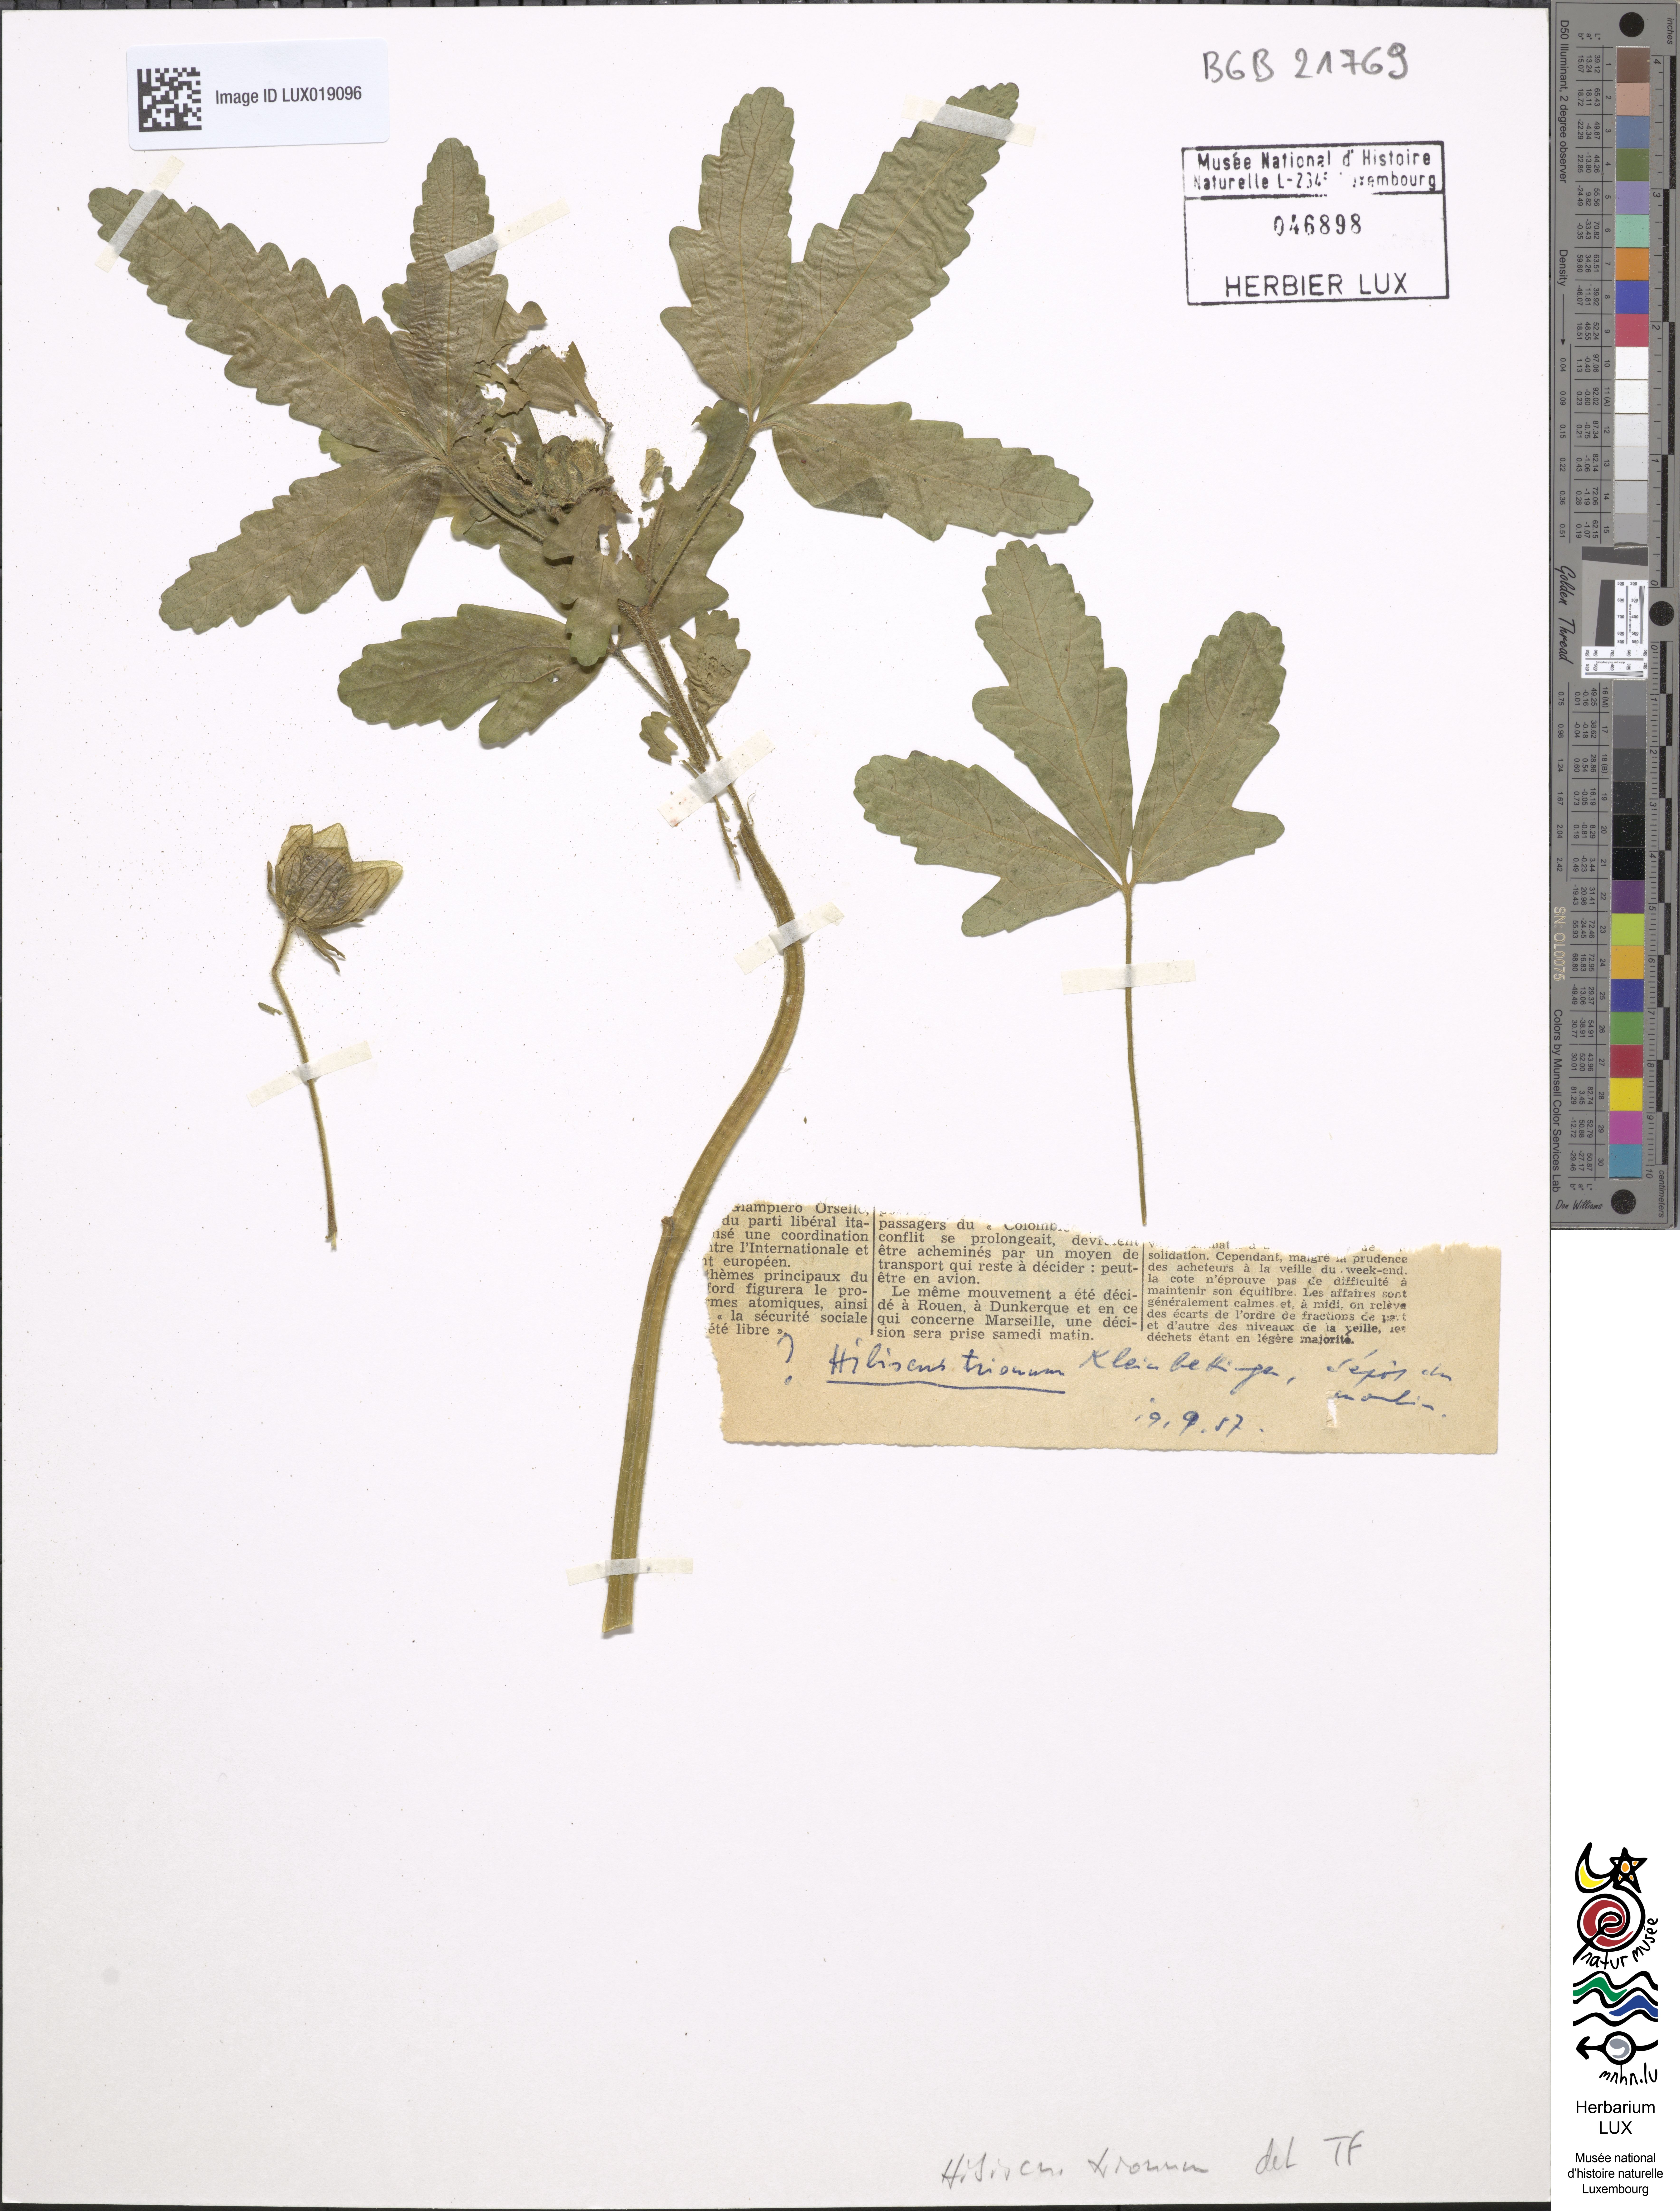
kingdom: Plantae
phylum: Tracheophyta
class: Magnoliopsida
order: Malvales
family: Malvaceae
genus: Hibiscus
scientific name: Hibiscus trionum
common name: Bladder ketmia
